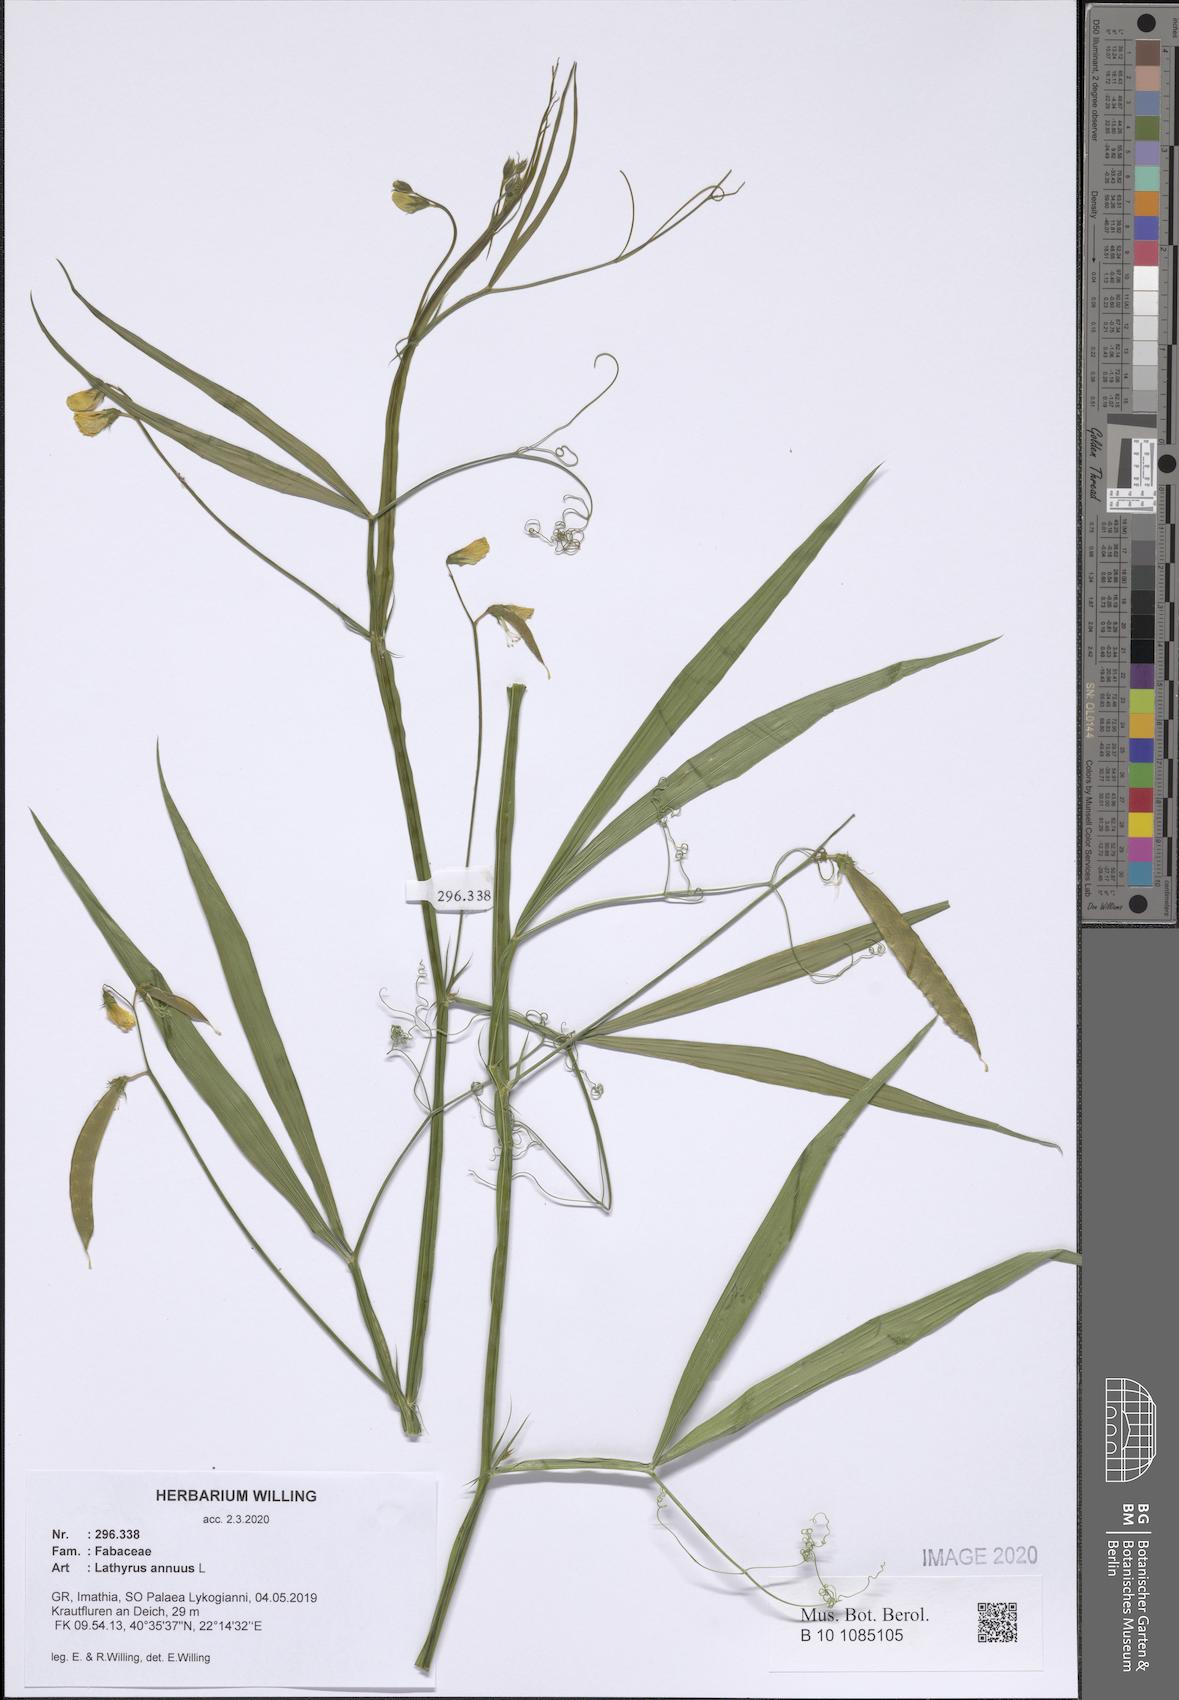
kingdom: Plantae
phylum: Tracheophyta
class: Magnoliopsida
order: Fabales
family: Fabaceae
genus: Lathyrus
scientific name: Lathyrus annuus
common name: Fodder pea
